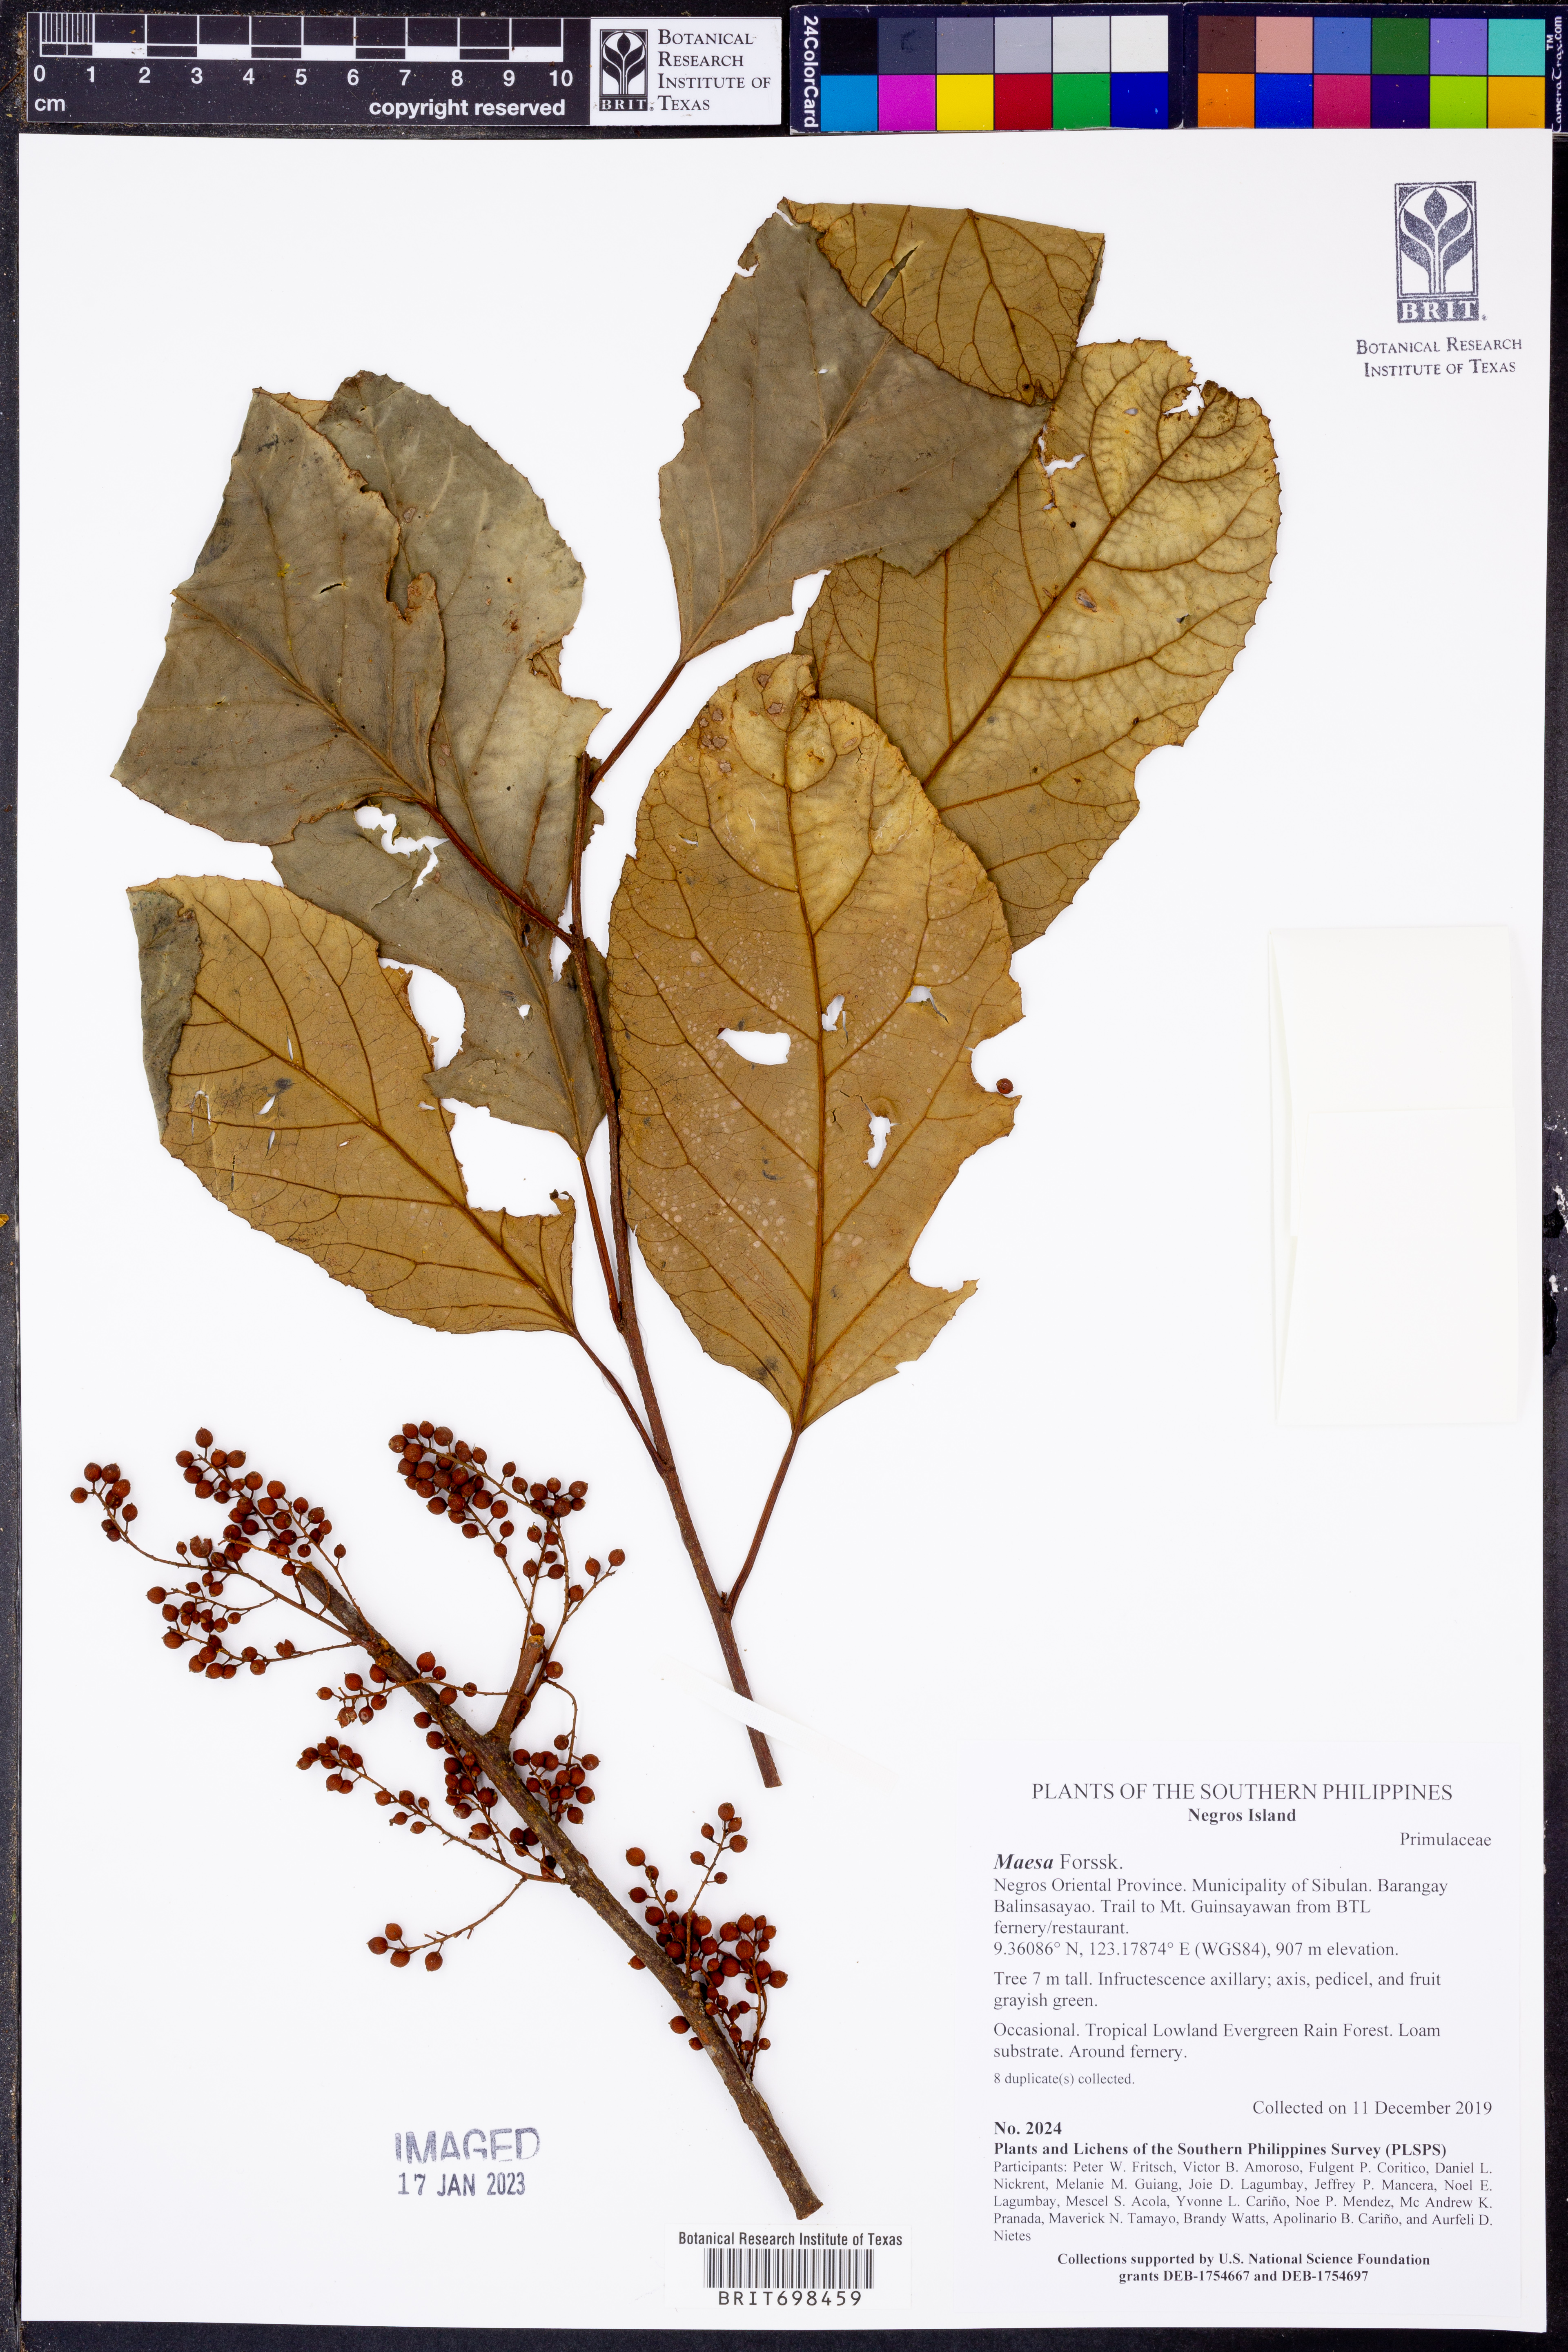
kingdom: Plantae
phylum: Tracheophyta
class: Magnoliopsida
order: Ericales
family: Primulaceae
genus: Maesa
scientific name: Maesa
